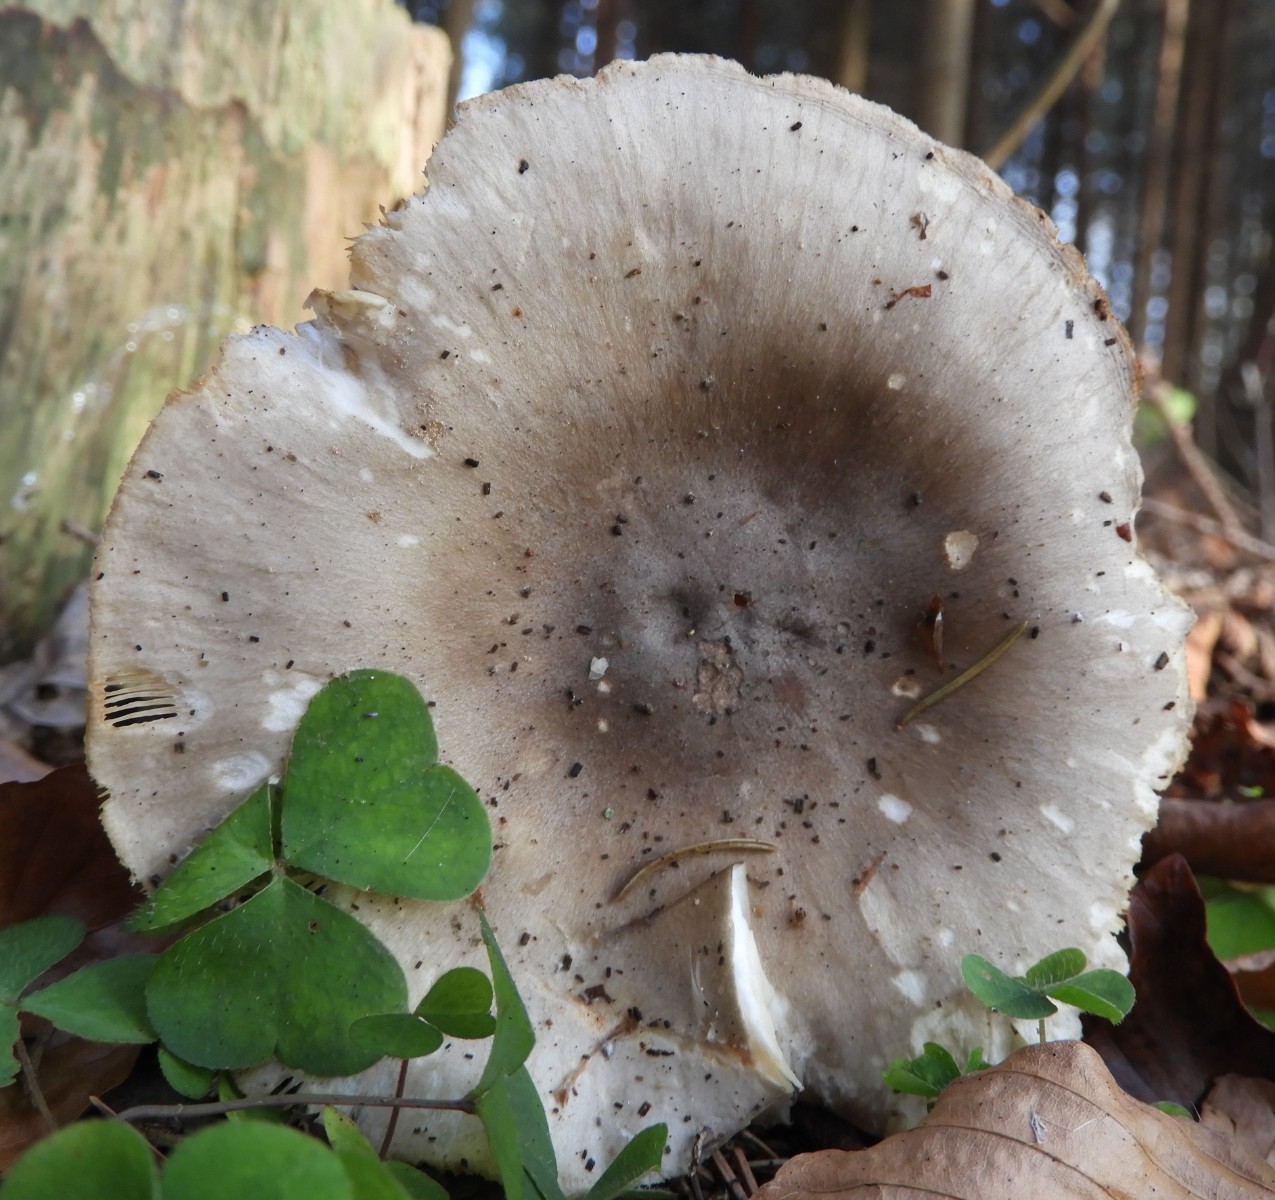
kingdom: Fungi
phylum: Basidiomycota
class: Agaricomycetes
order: Agaricales
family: Tricholomataceae
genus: Clitocybe
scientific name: Clitocybe nebularis
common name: tåge-tragthat
